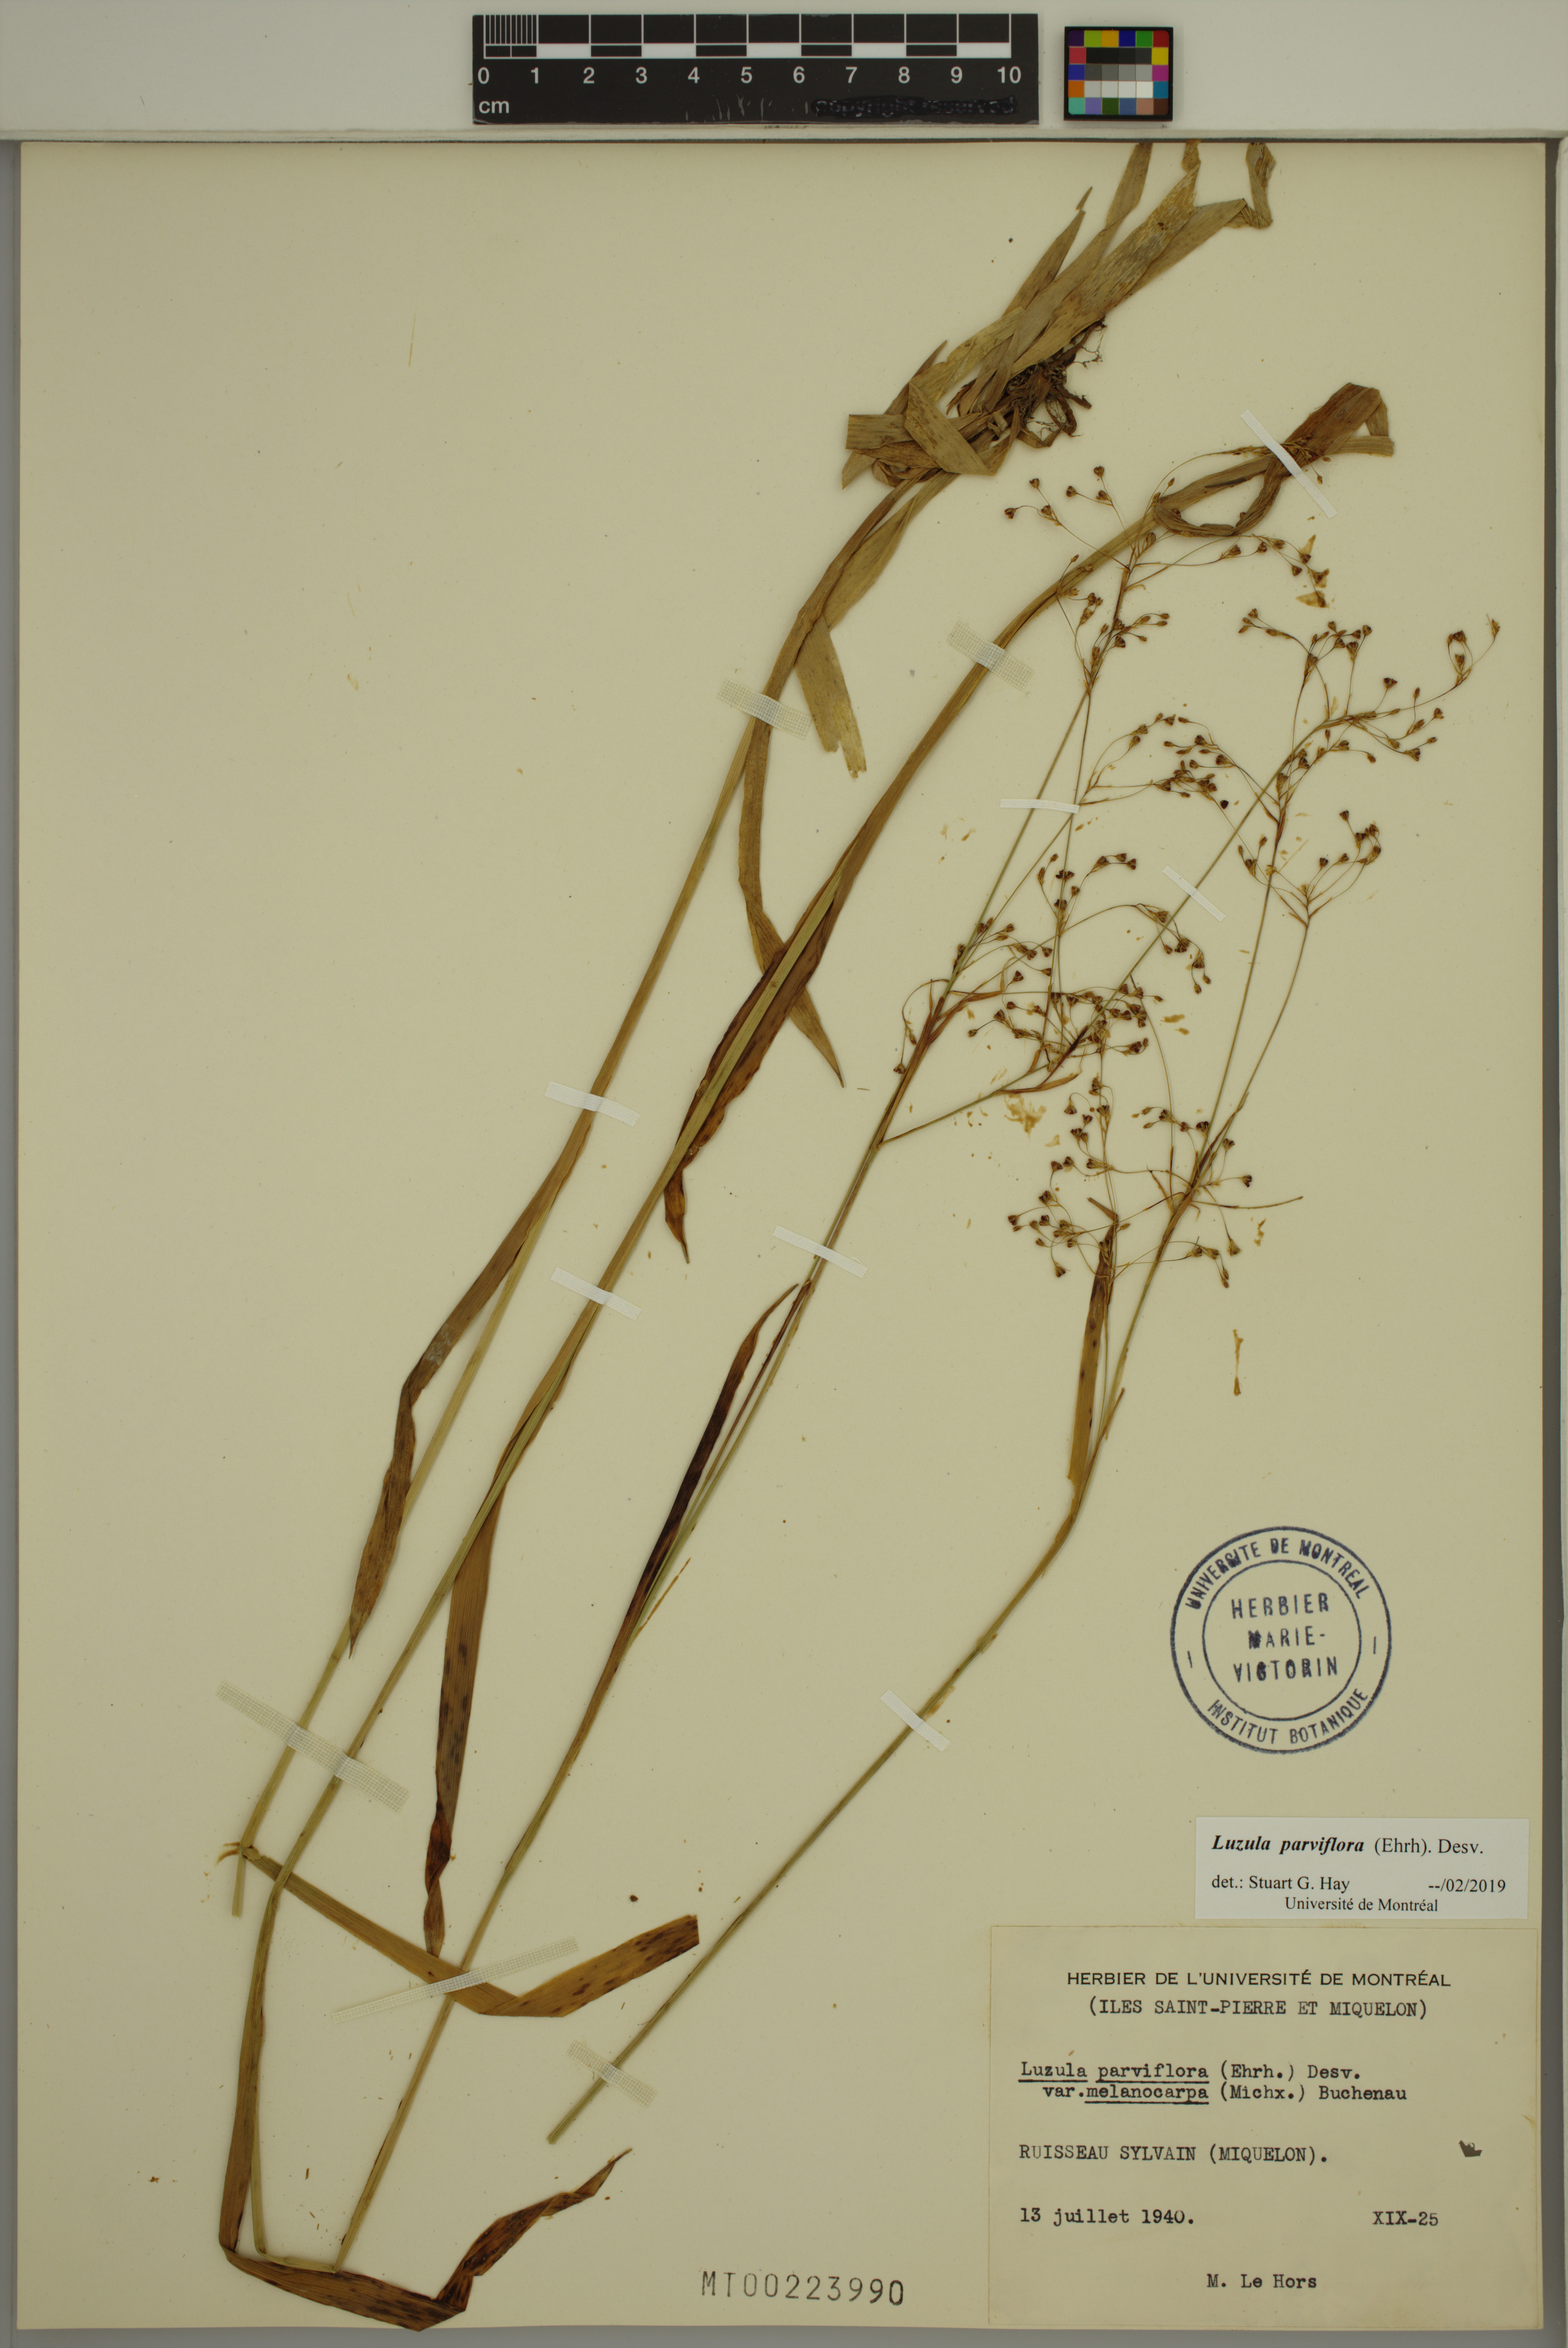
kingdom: Plantae
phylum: Tracheophyta
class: Liliopsida
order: Poales
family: Juncaceae
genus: Luzula
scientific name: Luzula parviflora
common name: Millet woodrush
